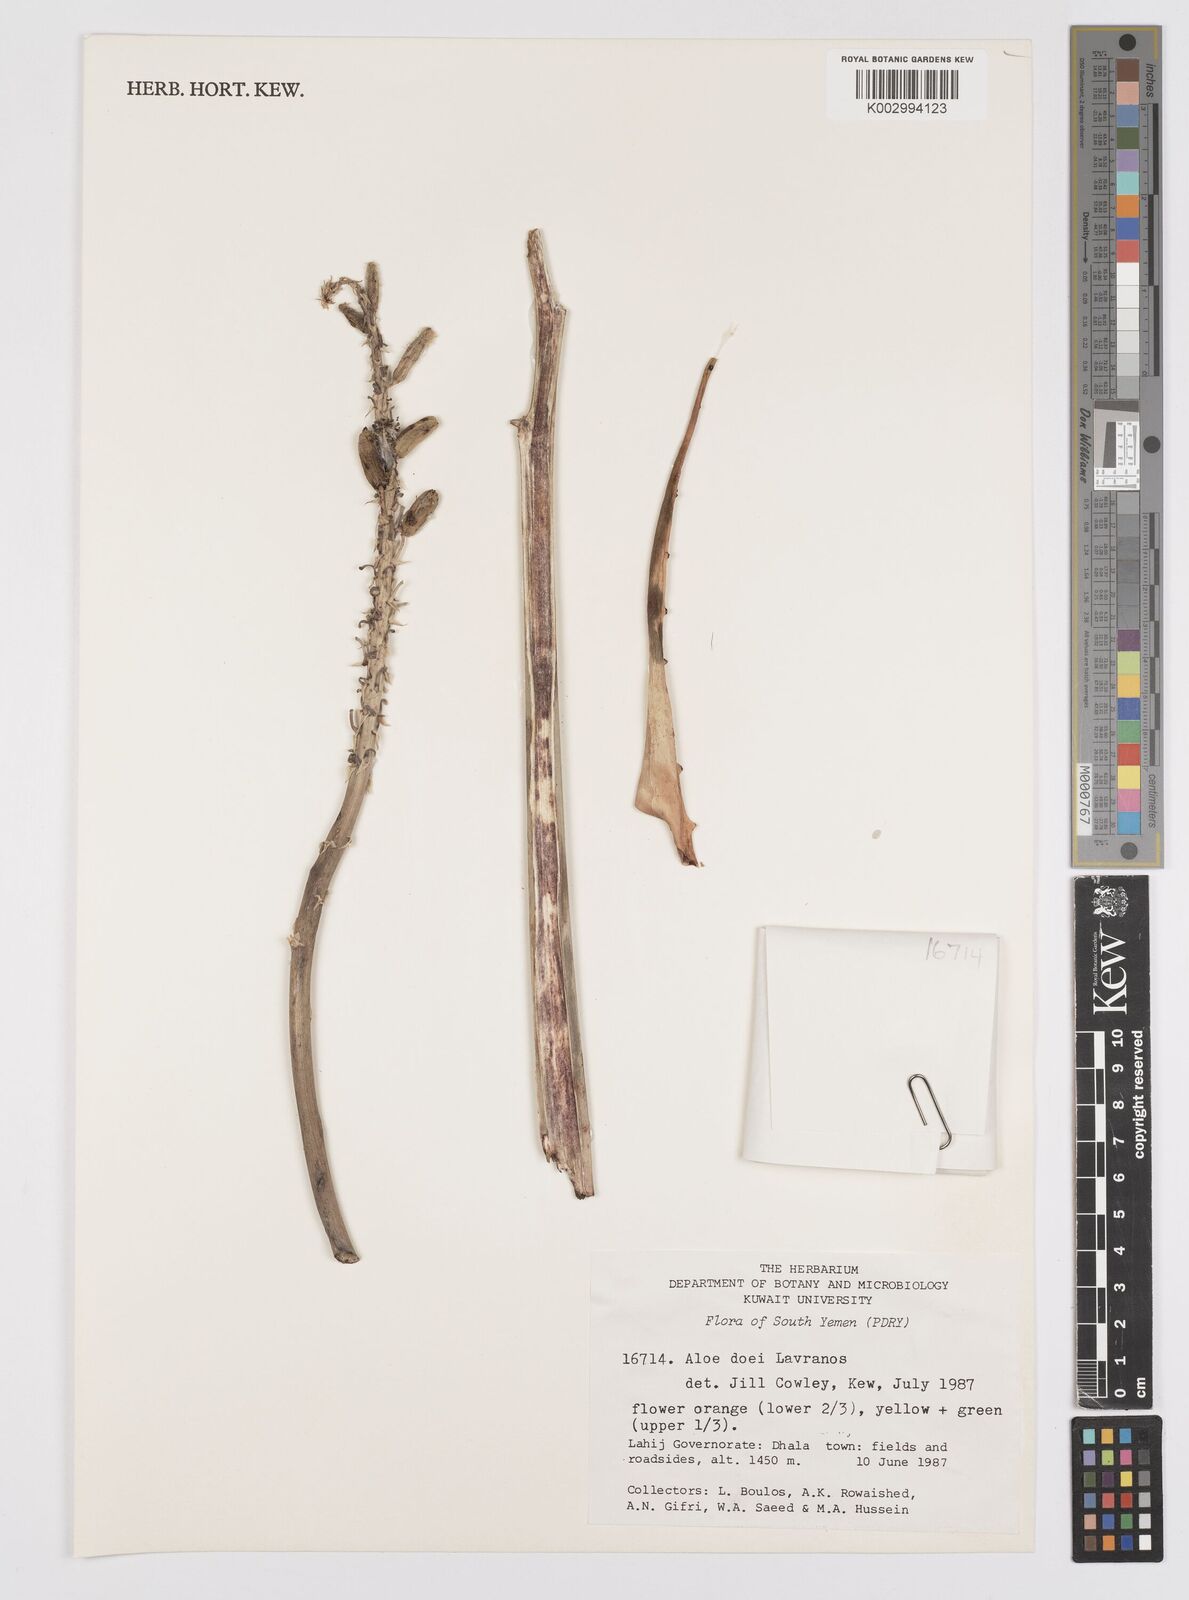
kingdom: Plantae
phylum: Tracheophyta
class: Liliopsida
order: Asparagales
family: Asphodelaceae
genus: Aloe
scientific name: Aloe lavranosii
